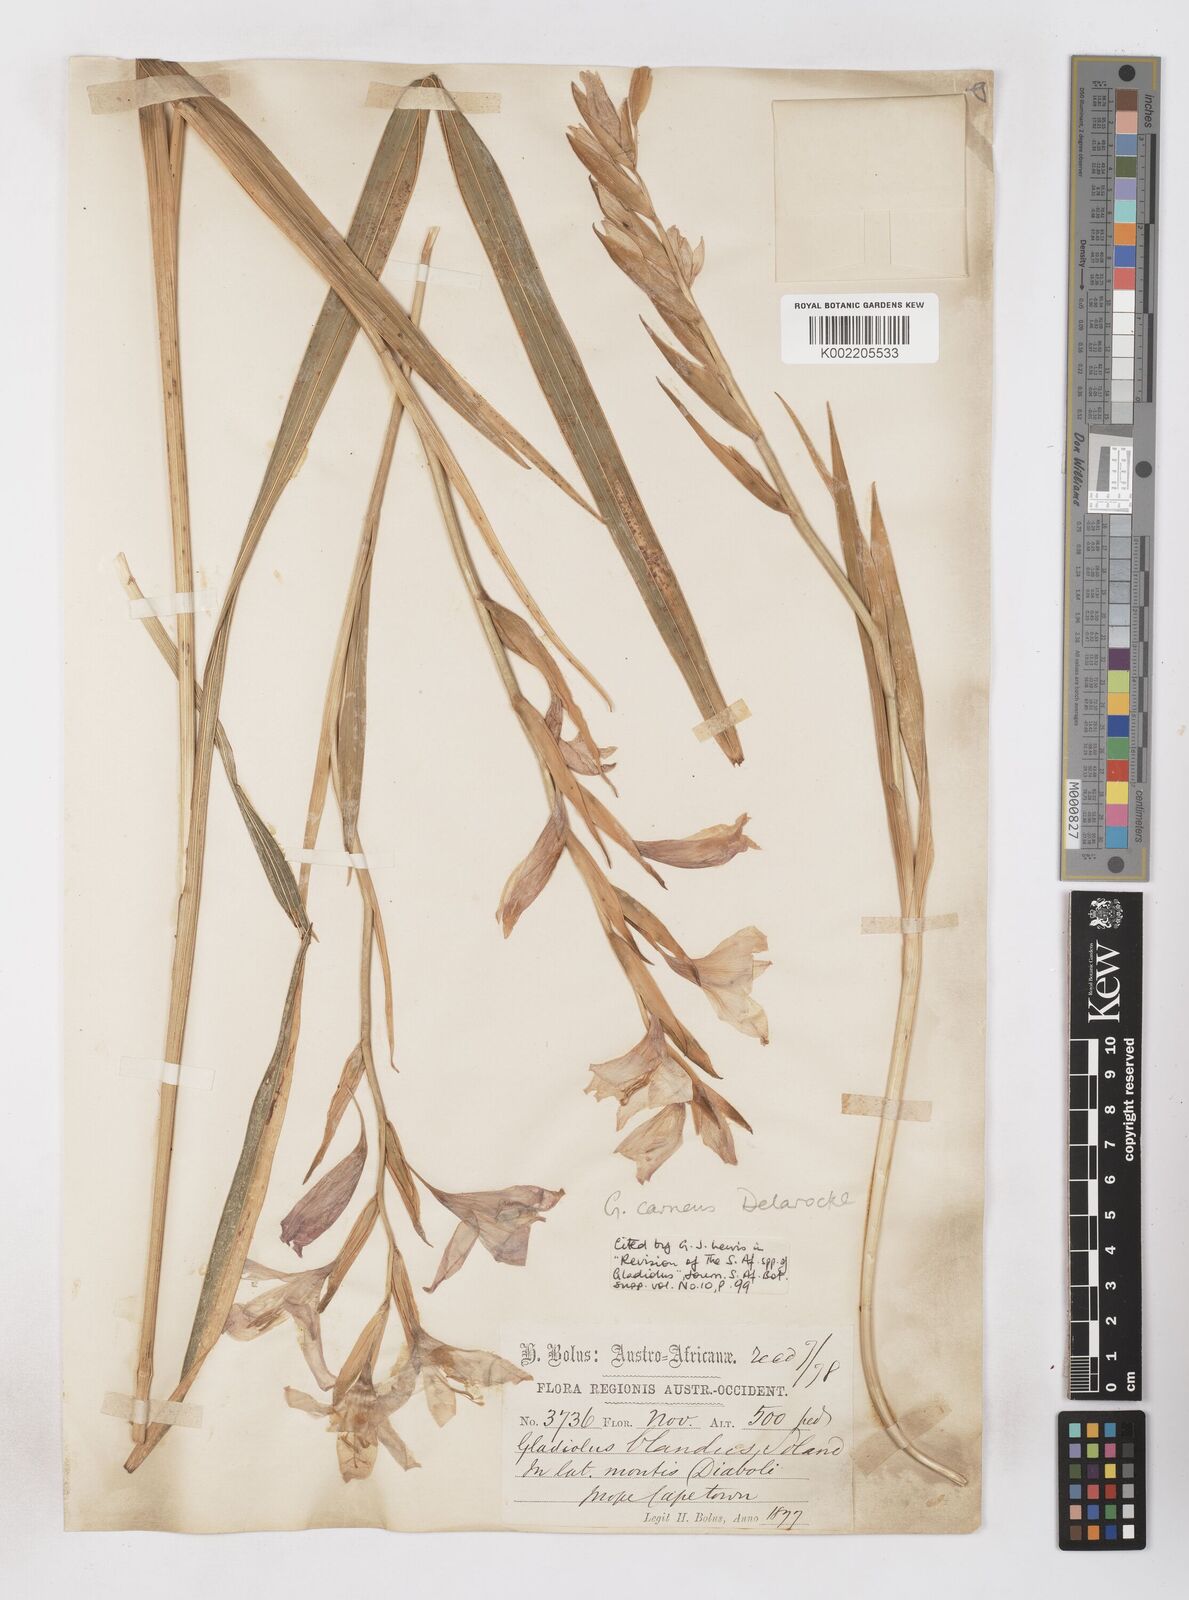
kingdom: Plantae
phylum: Tracheophyta
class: Liliopsida
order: Asparagales
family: Iridaceae
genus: Gladiolus
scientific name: Gladiolus carneus
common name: Painted-lady
